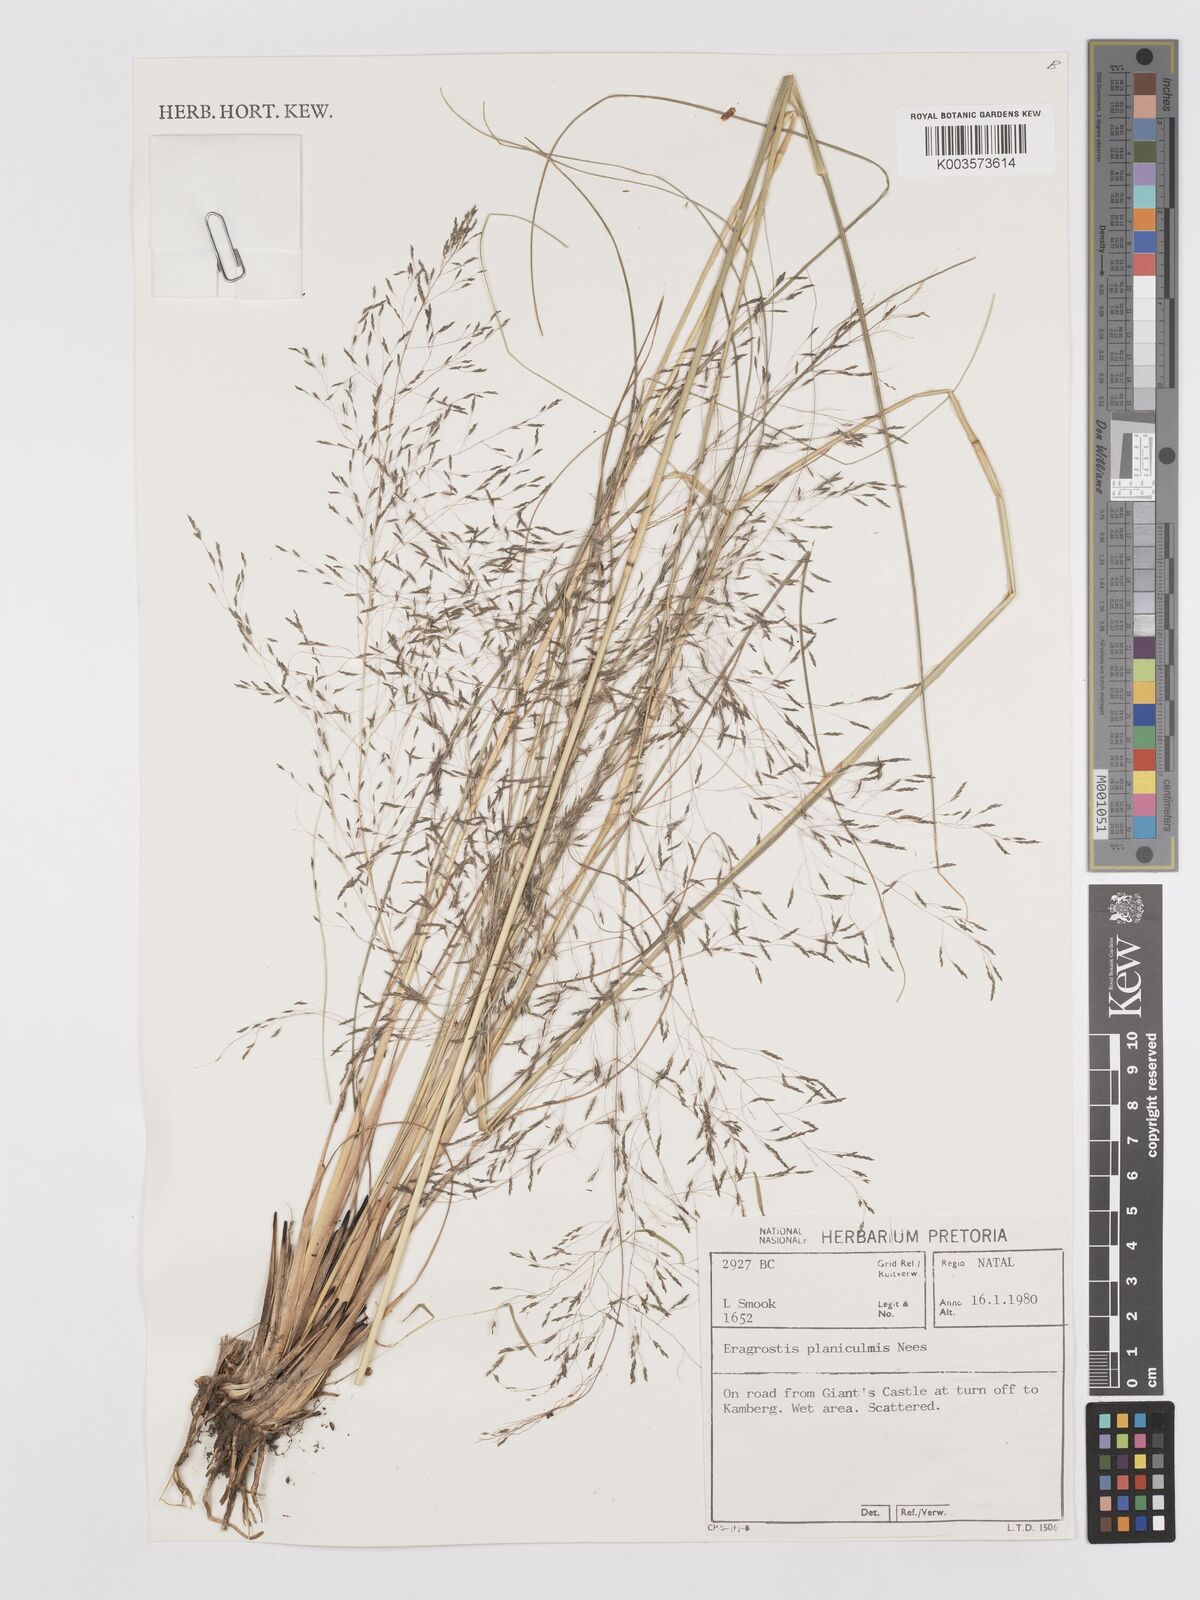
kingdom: Plantae
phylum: Tracheophyta
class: Liliopsida
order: Poales
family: Poaceae
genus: Eragrostis
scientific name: Eragrostis planiculmis
